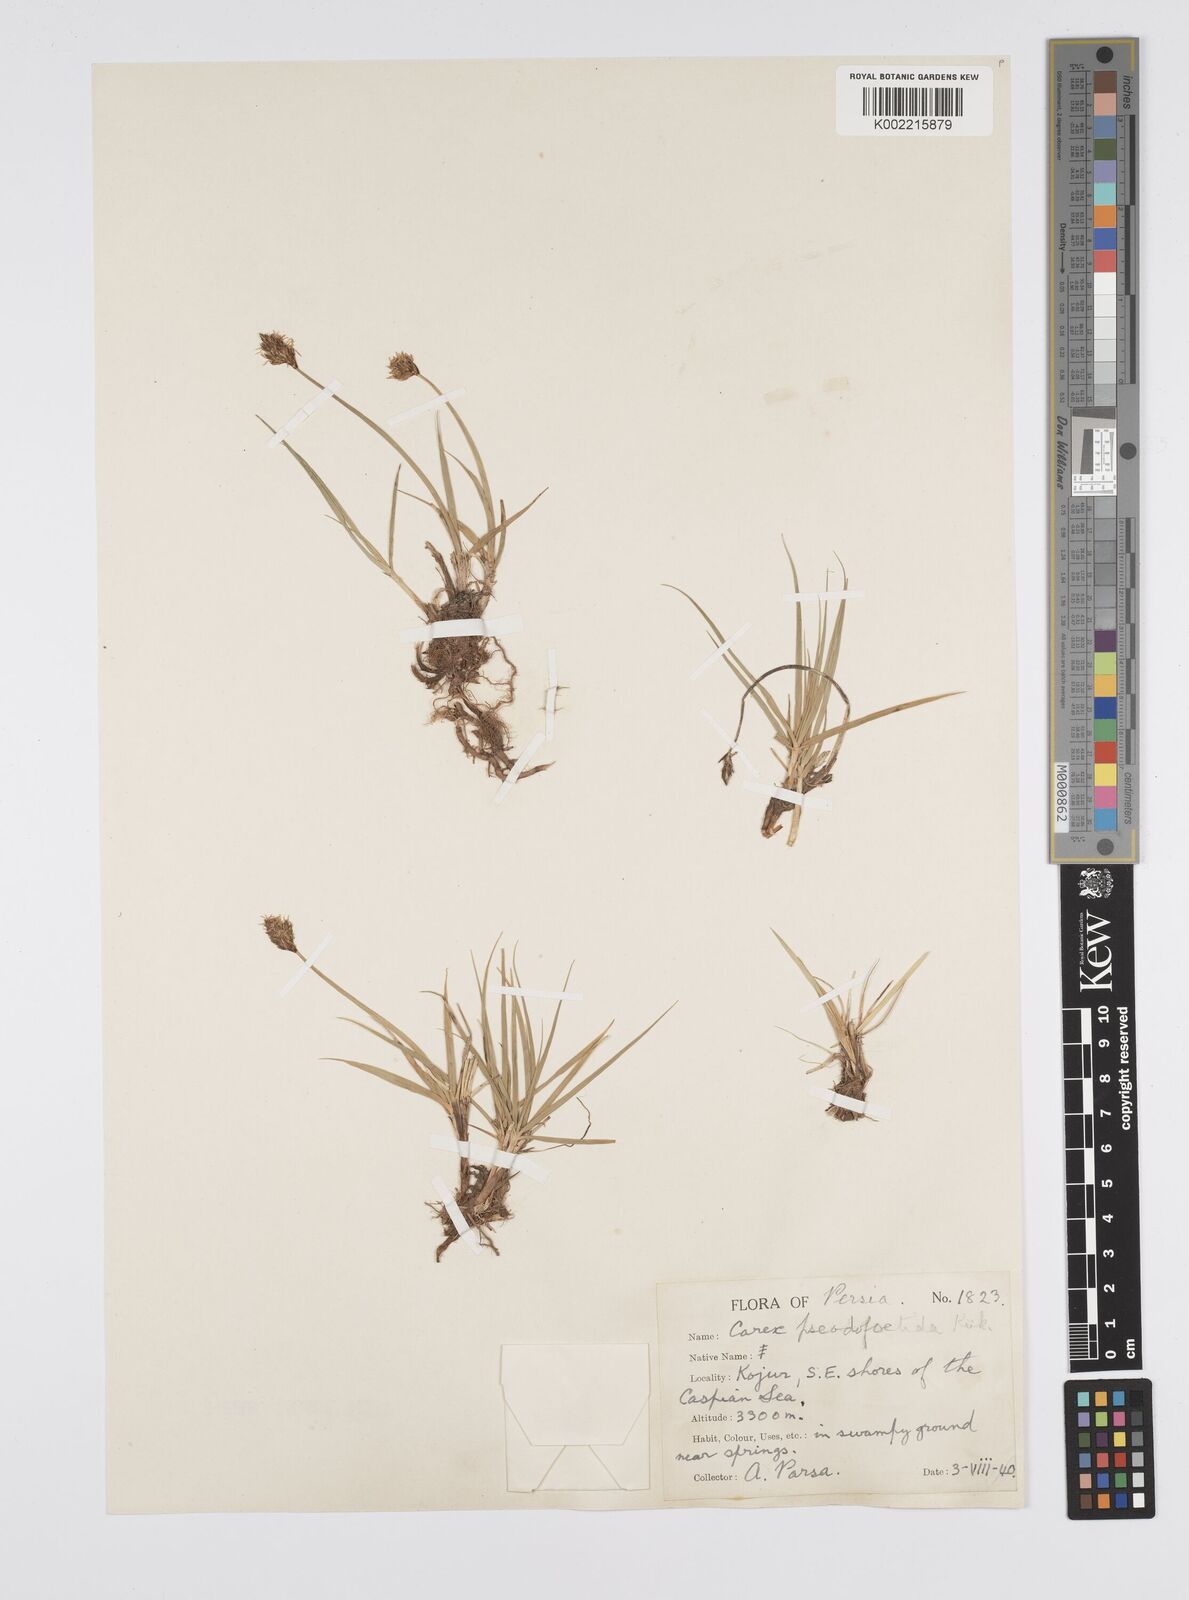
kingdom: Plantae
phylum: Tracheophyta
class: Liliopsida
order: Poales
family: Cyperaceae
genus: Carex
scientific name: Carex pseudofoetida
